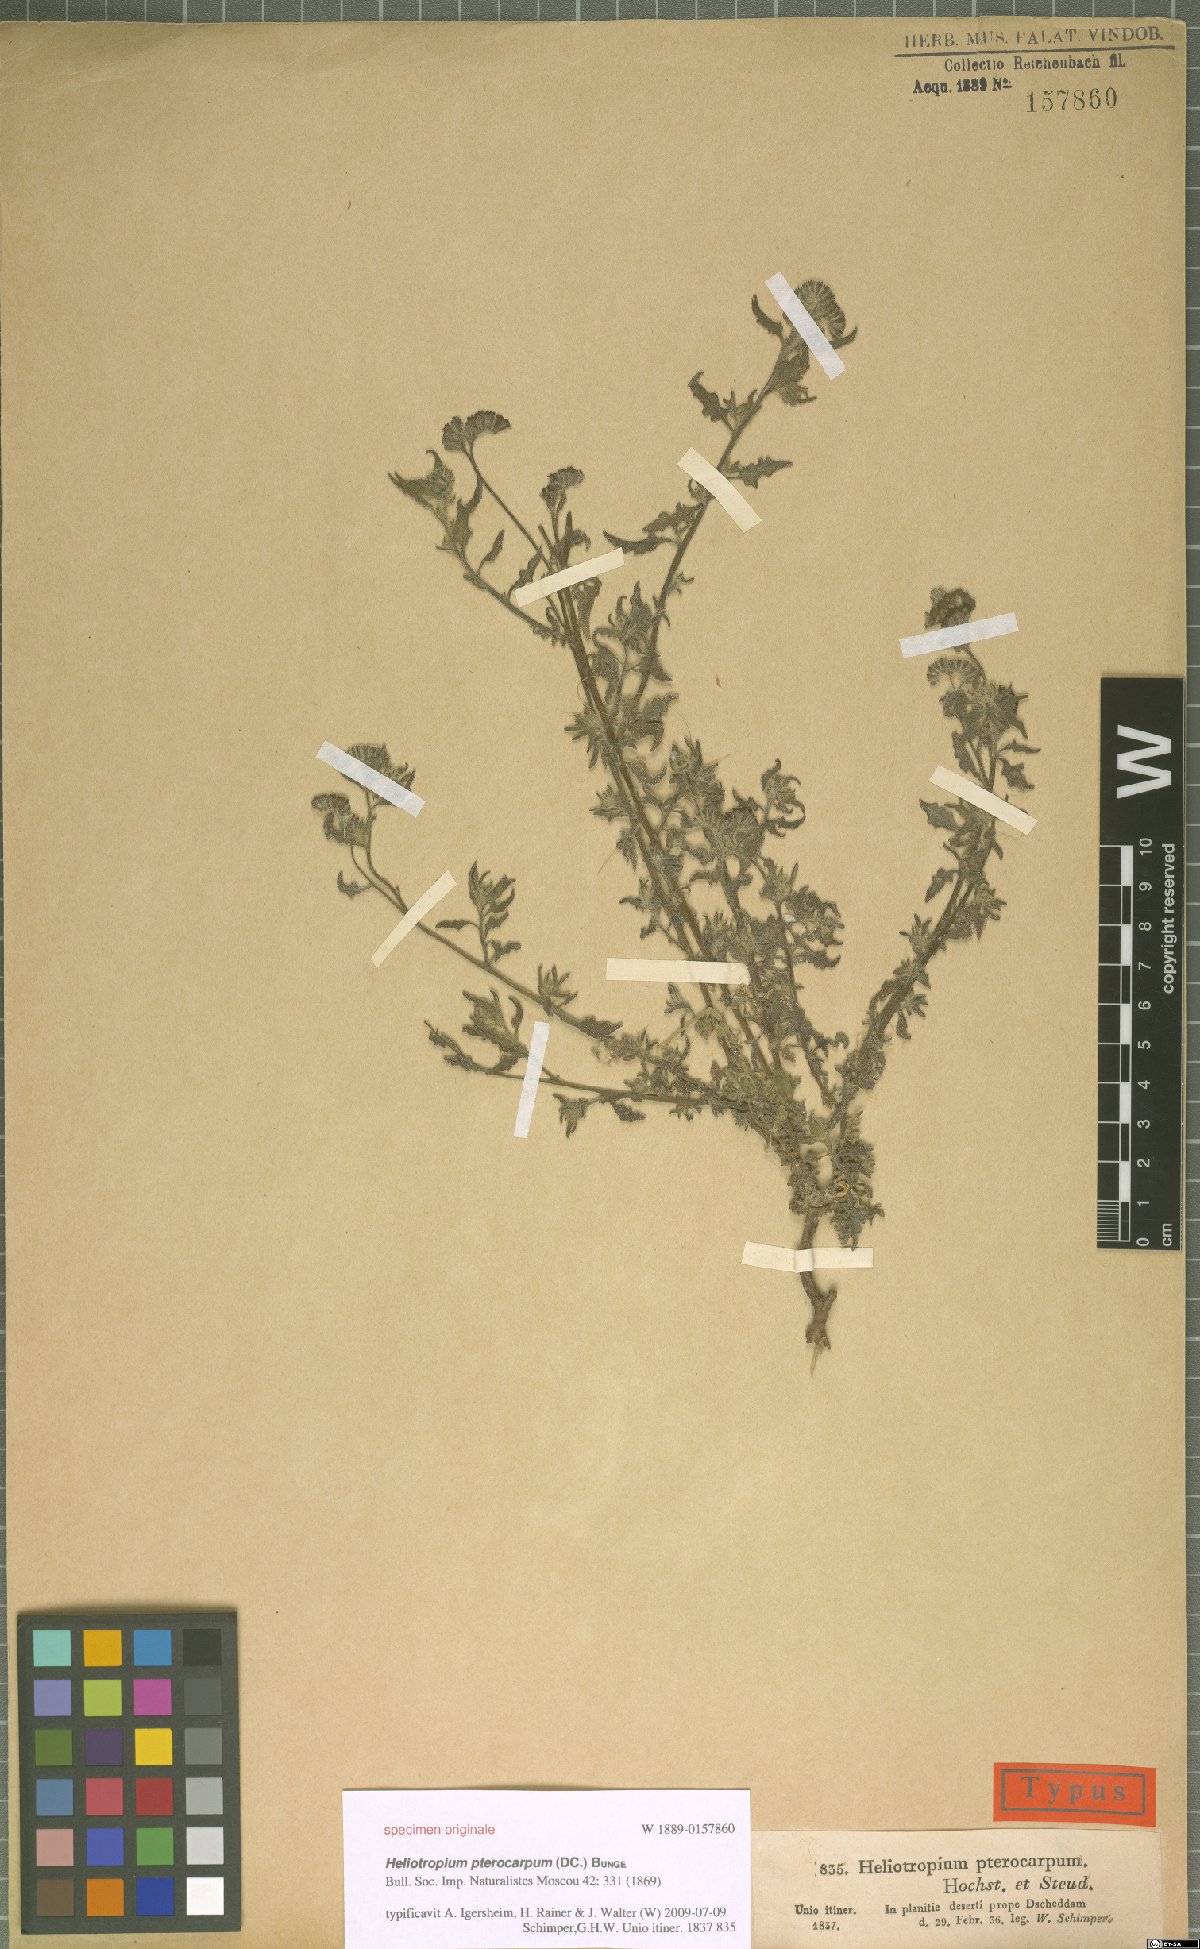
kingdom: Plantae
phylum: Tracheophyta
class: Magnoliopsida
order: Boraginales
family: Heliotropiaceae
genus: Heliotropium
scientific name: Heliotropium pterocarpum
